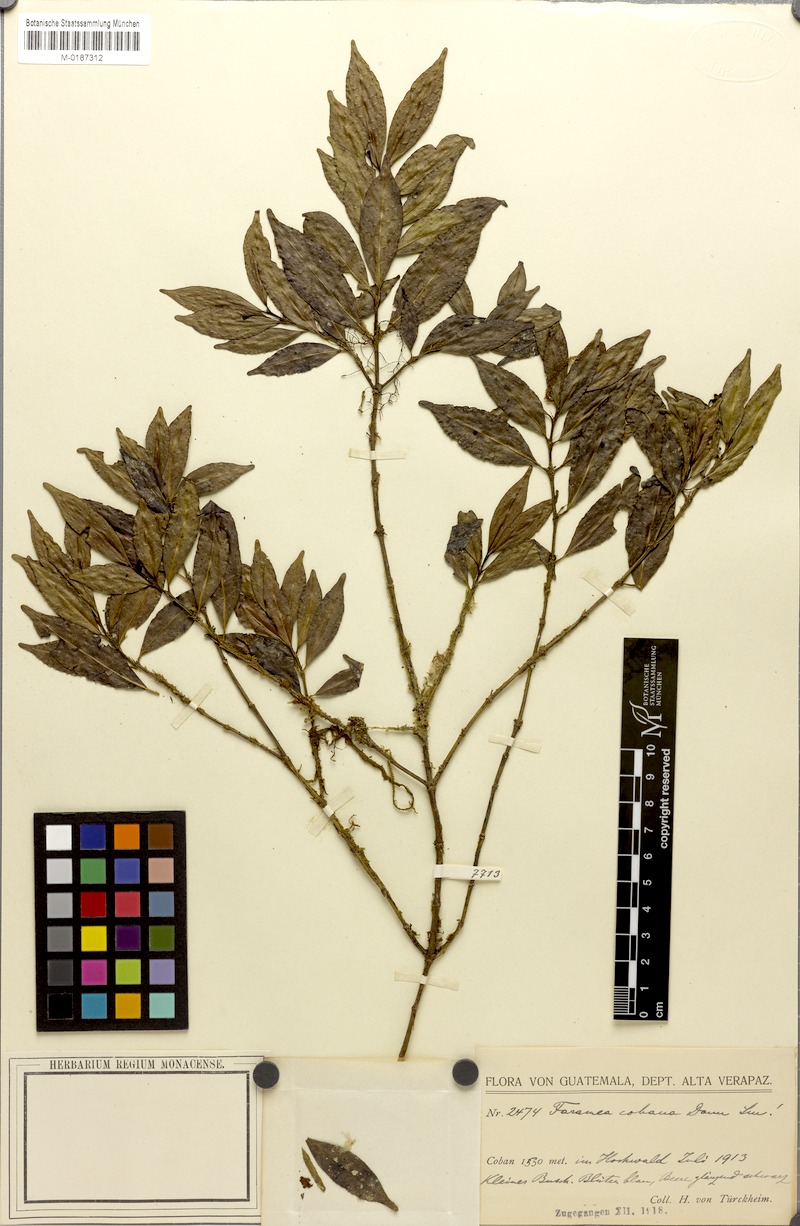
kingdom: Plantae
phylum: Tracheophyta
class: Magnoliopsida
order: Gentianales
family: Rubiaceae
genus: Faramea
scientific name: Faramea cobana
